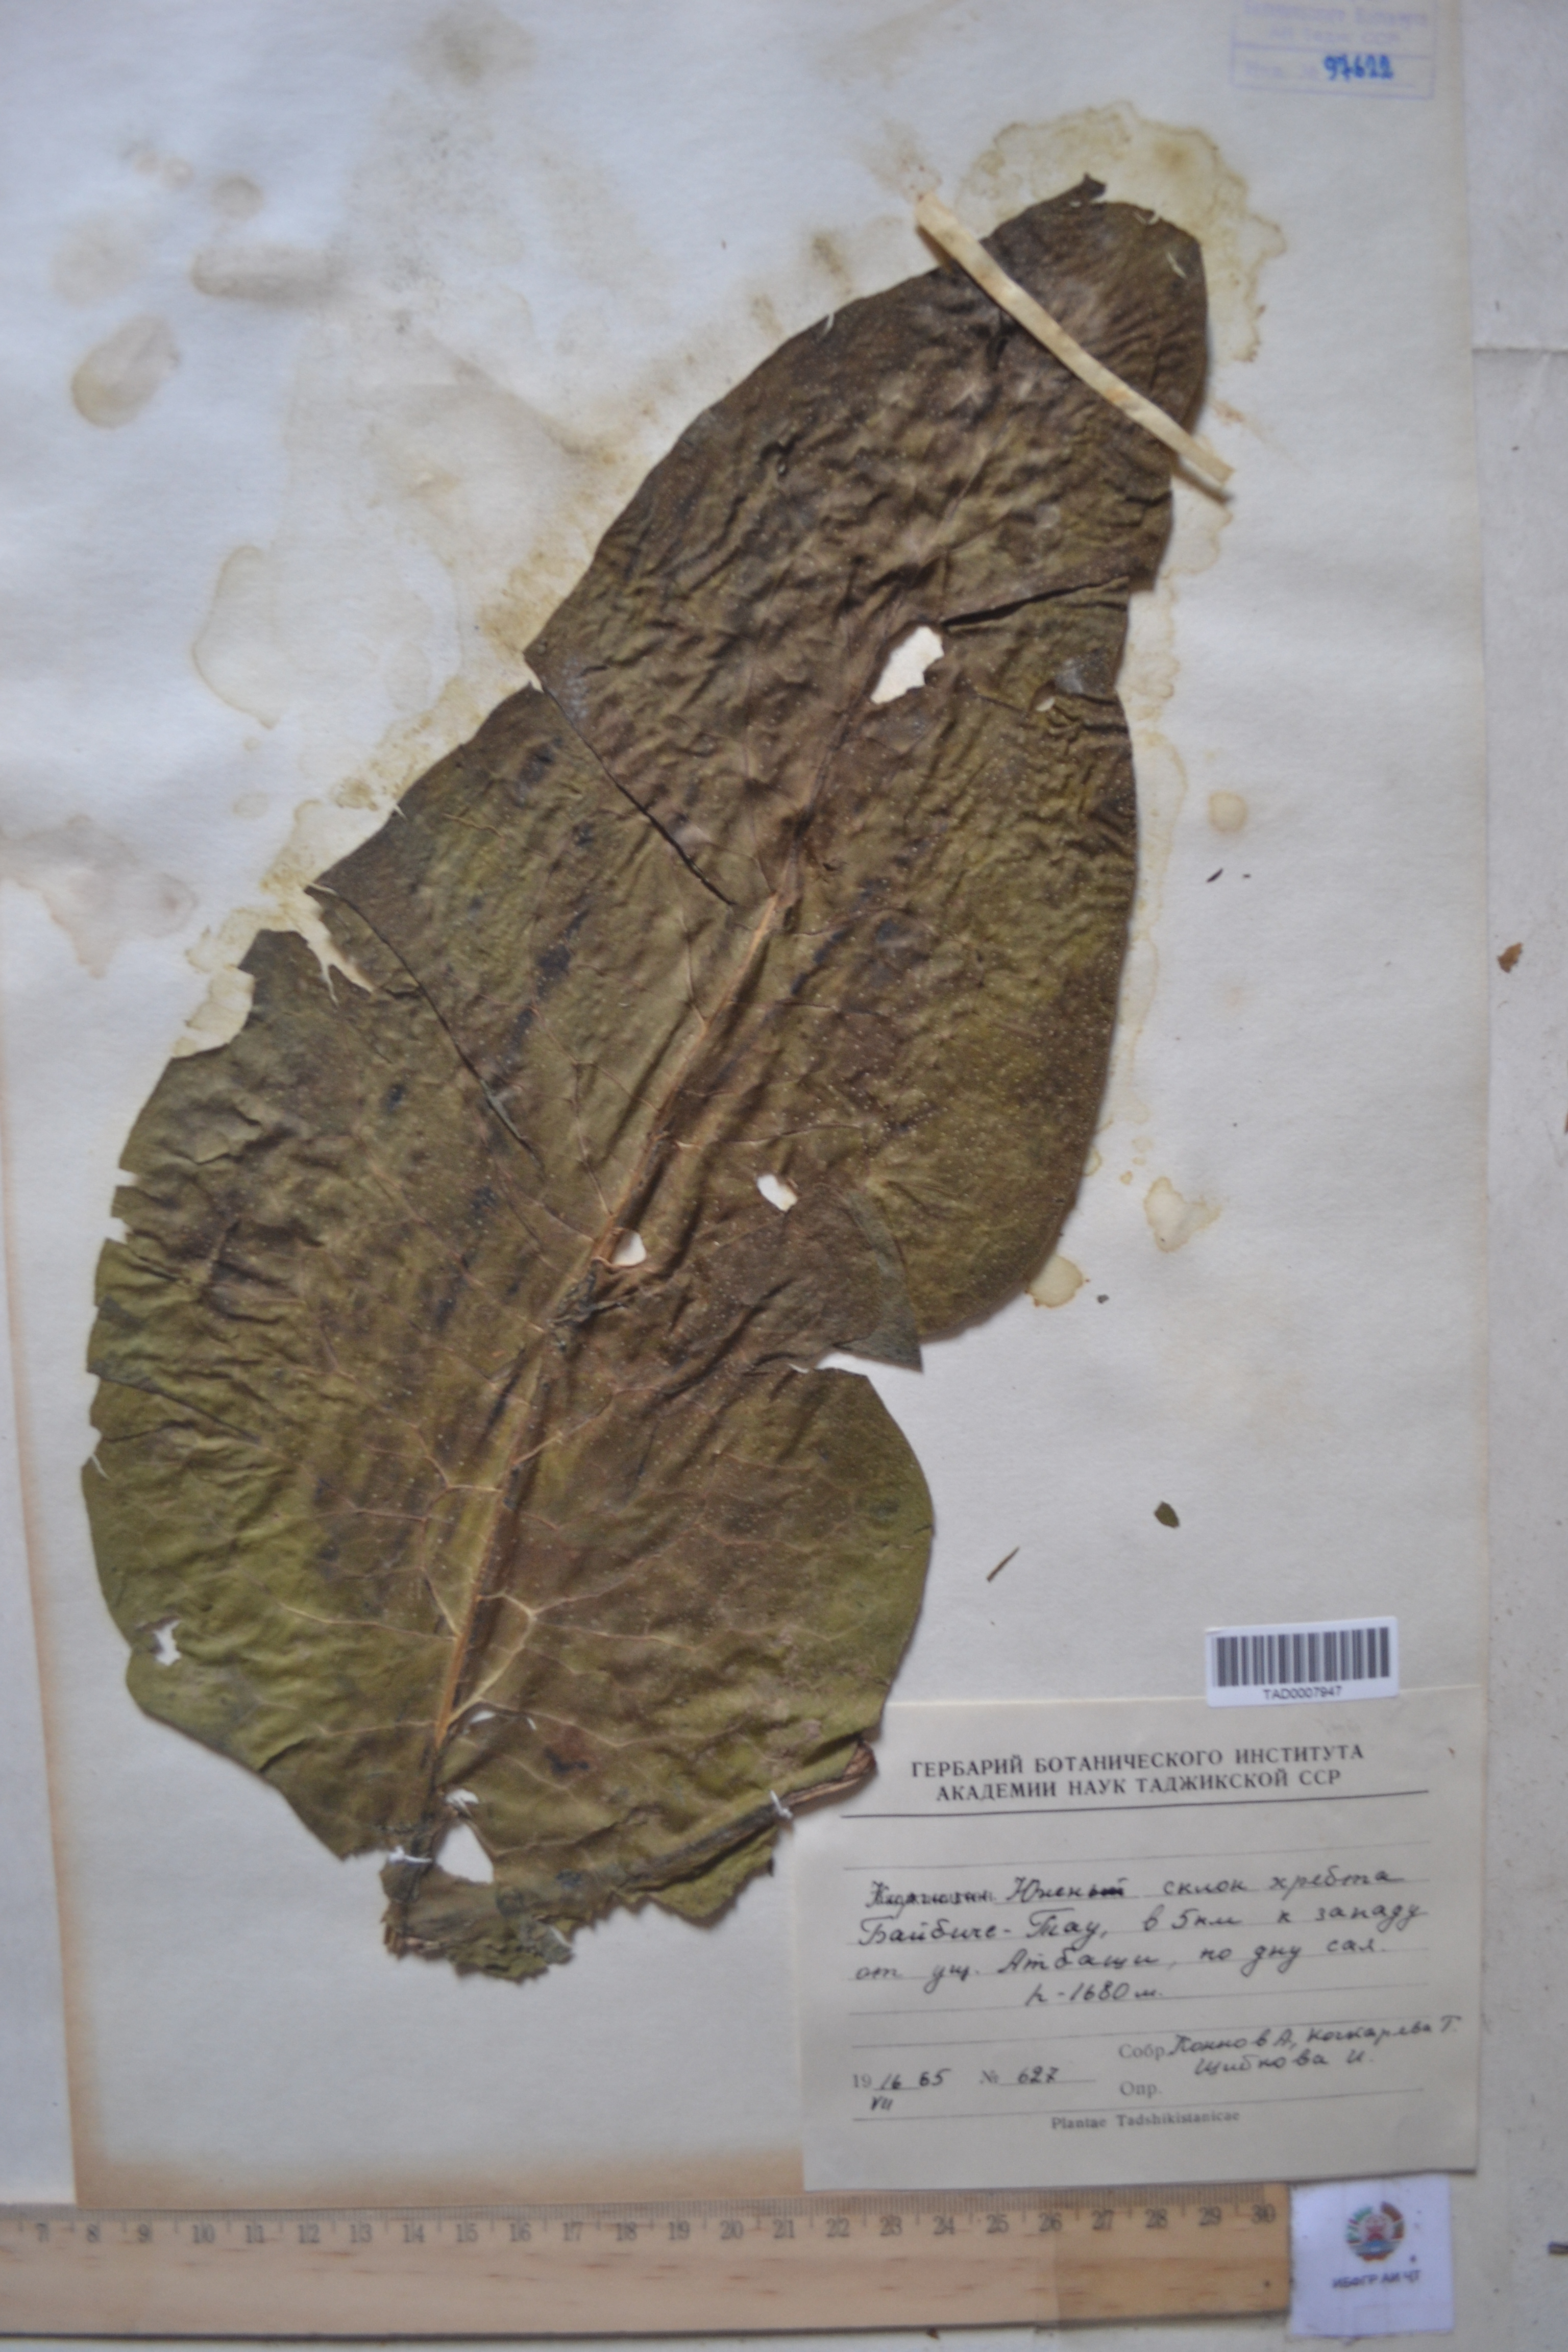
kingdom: Plantae
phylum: Tracheophyta
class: Magnoliopsida
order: Boraginales
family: Boraginaceae
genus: Lindelofia
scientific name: Lindelofia hissarica
